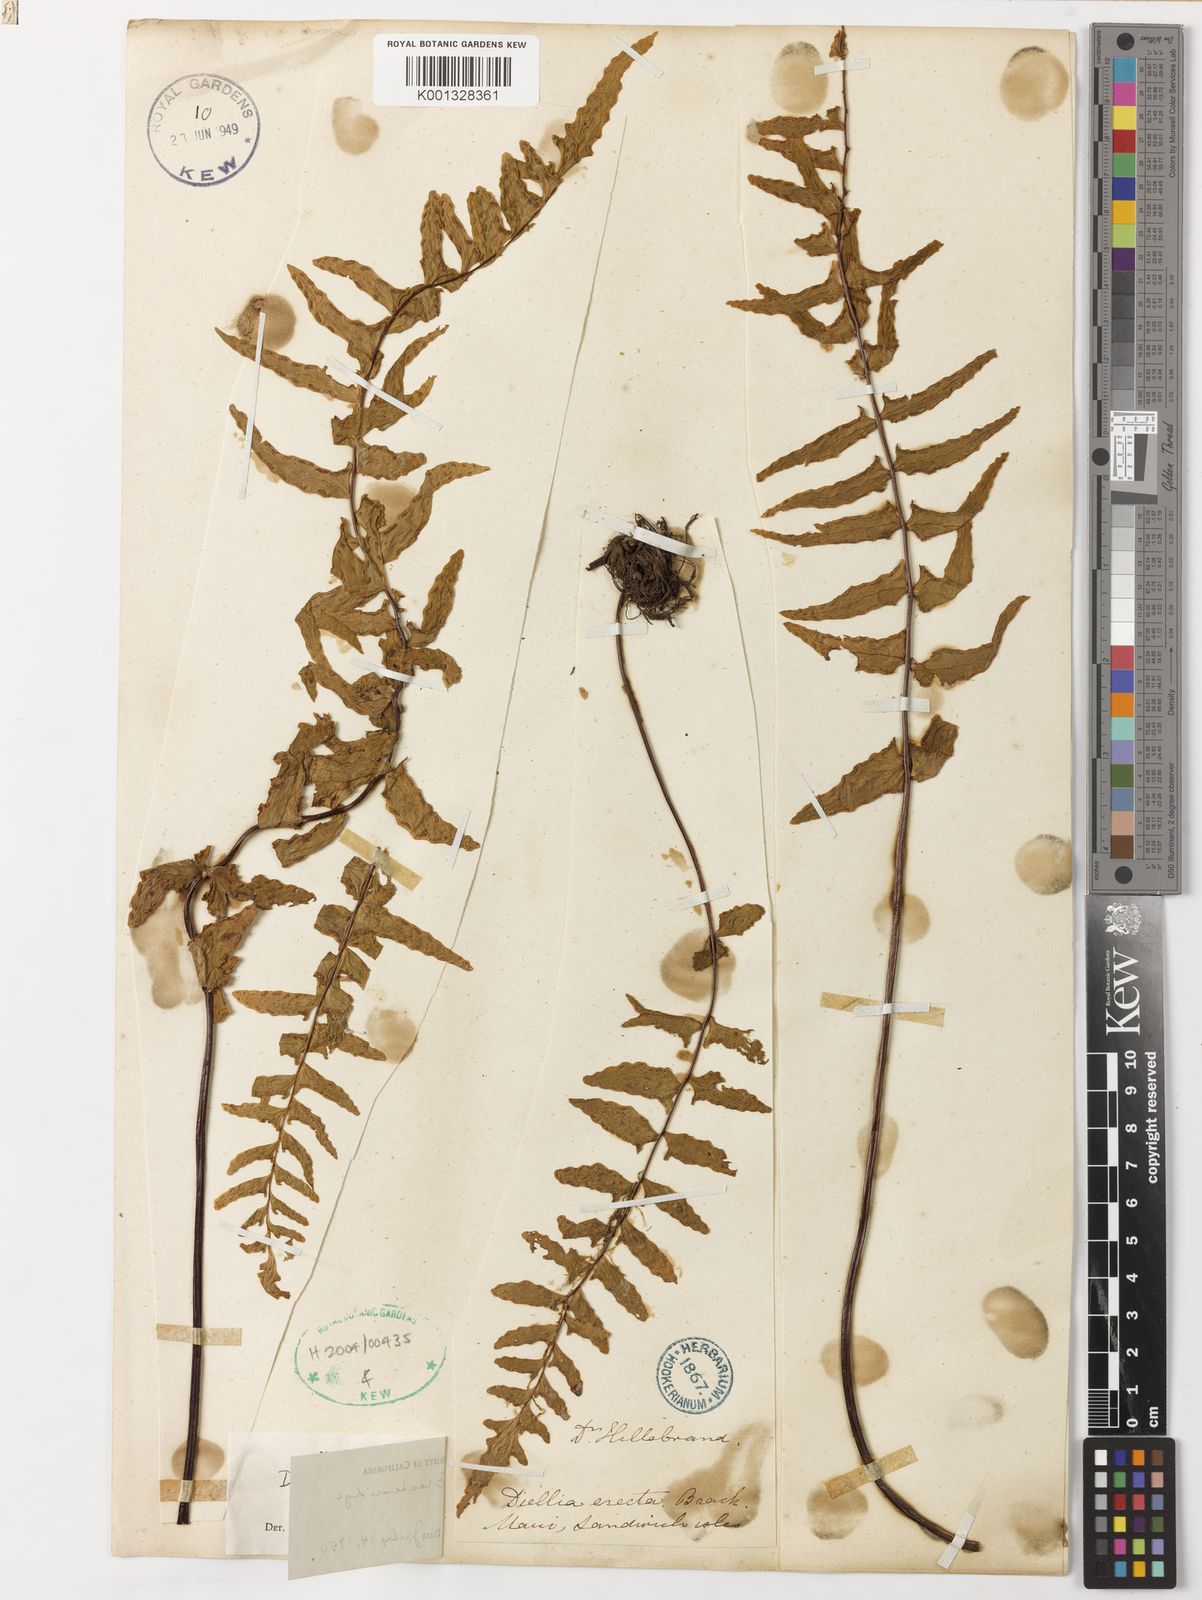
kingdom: Plantae
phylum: Tracheophyta
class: Polypodiopsida
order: Polypodiales
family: Aspleniaceae
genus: Asplenium
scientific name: Asplenium dielerectum
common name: Erect island spleenwort
